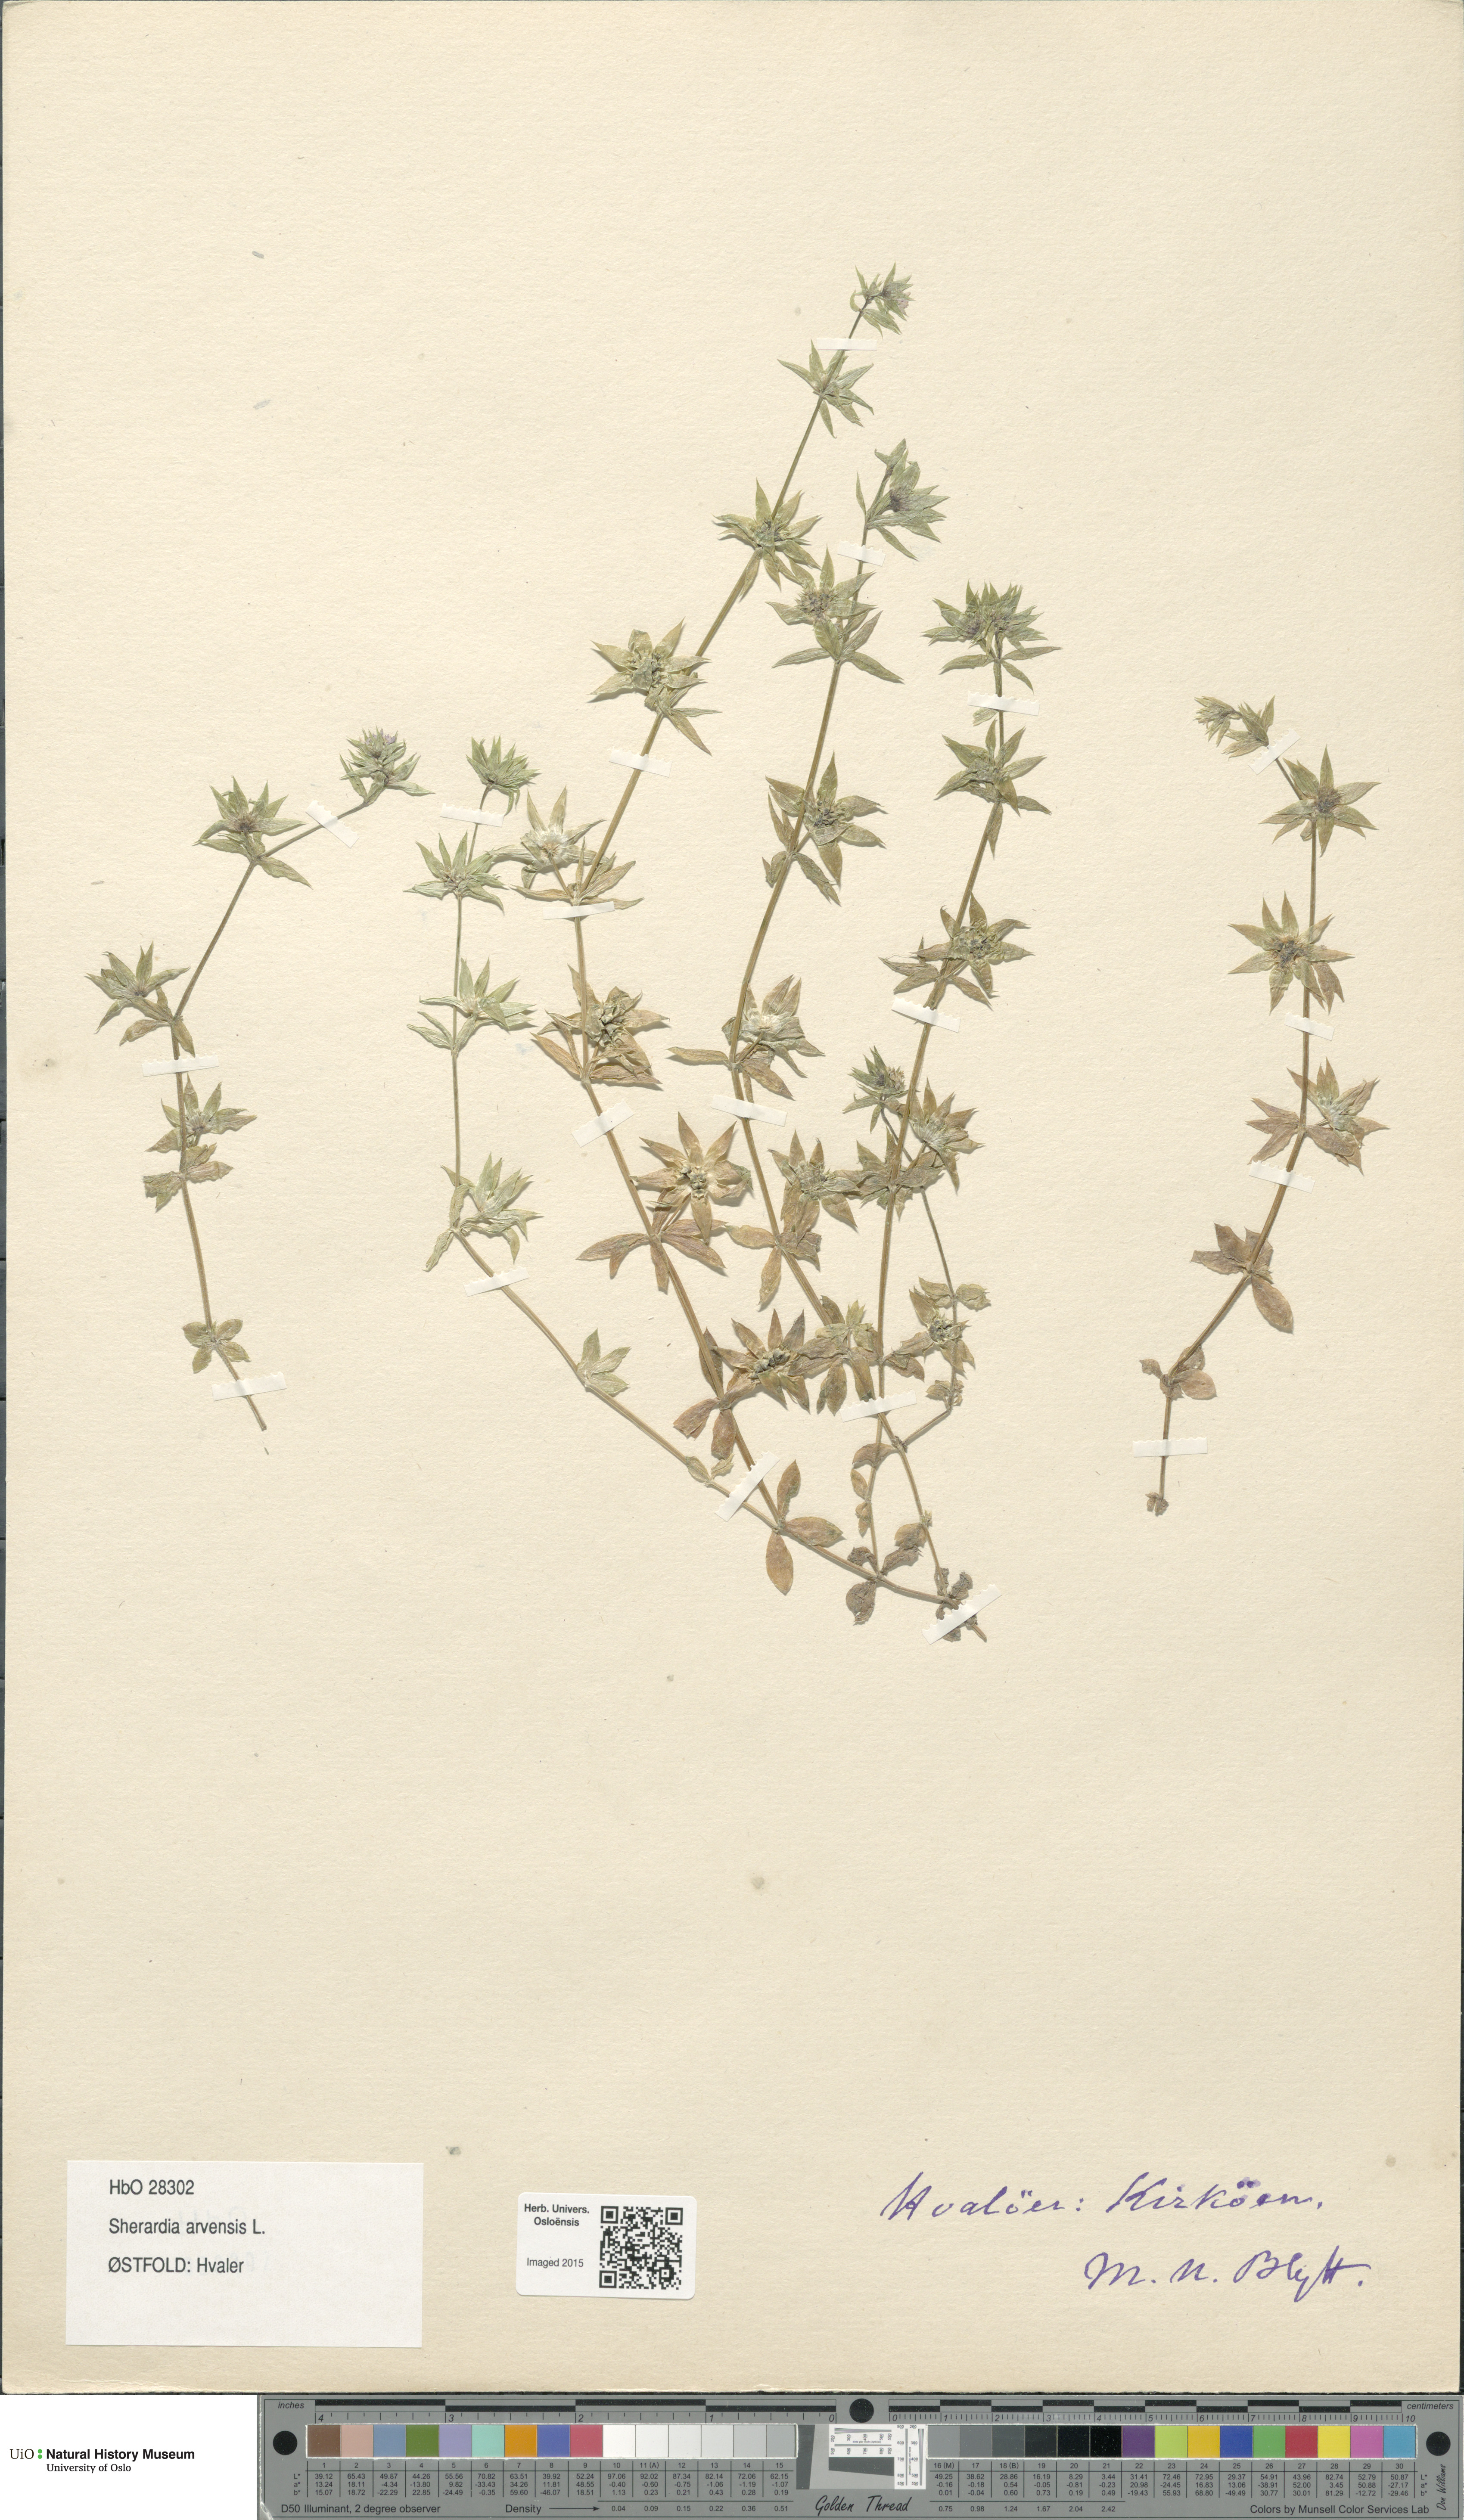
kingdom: Plantae
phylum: Tracheophyta
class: Magnoliopsida
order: Gentianales
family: Rubiaceae
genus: Sherardia
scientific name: Sherardia arvensis
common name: Field madder
